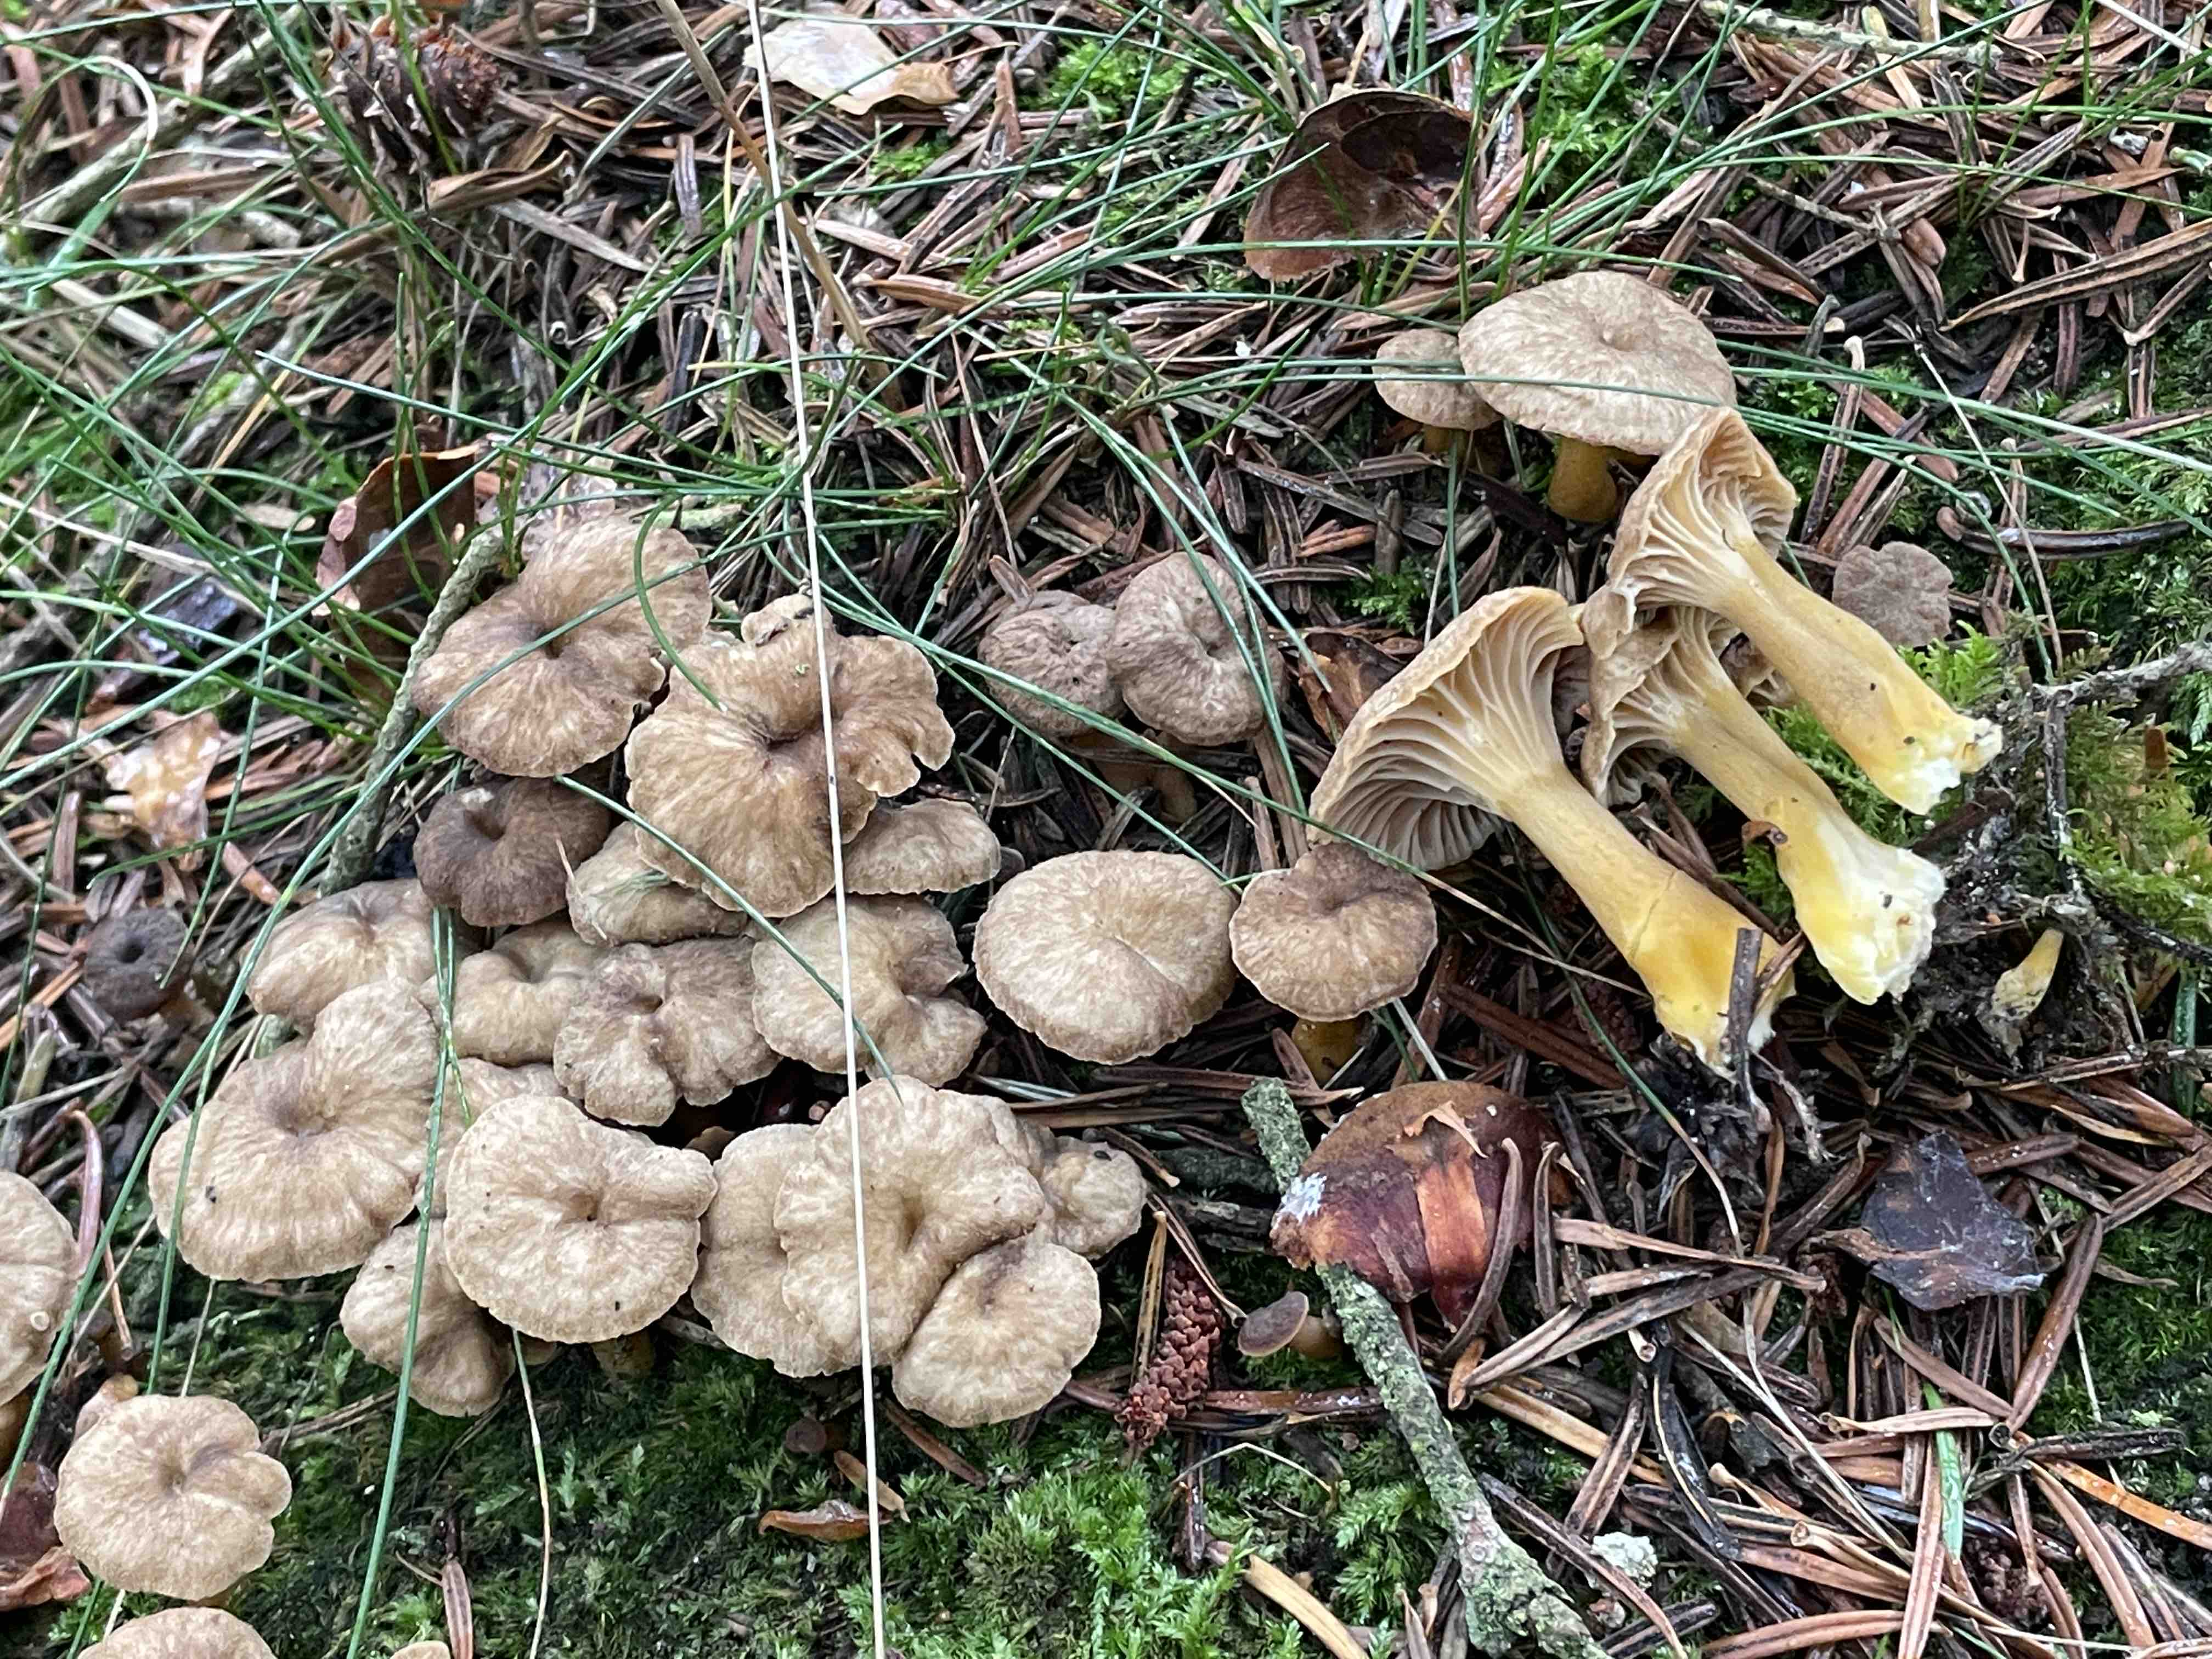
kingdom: Fungi
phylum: Basidiomycota
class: Agaricomycetes
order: Cantharellales
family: Hydnaceae
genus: Craterellus
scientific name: Craterellus tubaeformis
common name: tragt-kantarel
